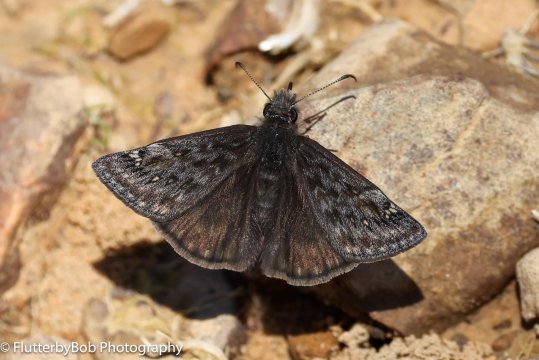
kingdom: Animalia
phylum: Arthropoda
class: Insecta
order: Lepidoptera
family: Hesperiidae
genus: Gesta
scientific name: Gesta
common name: Juvenal's Duskywing
